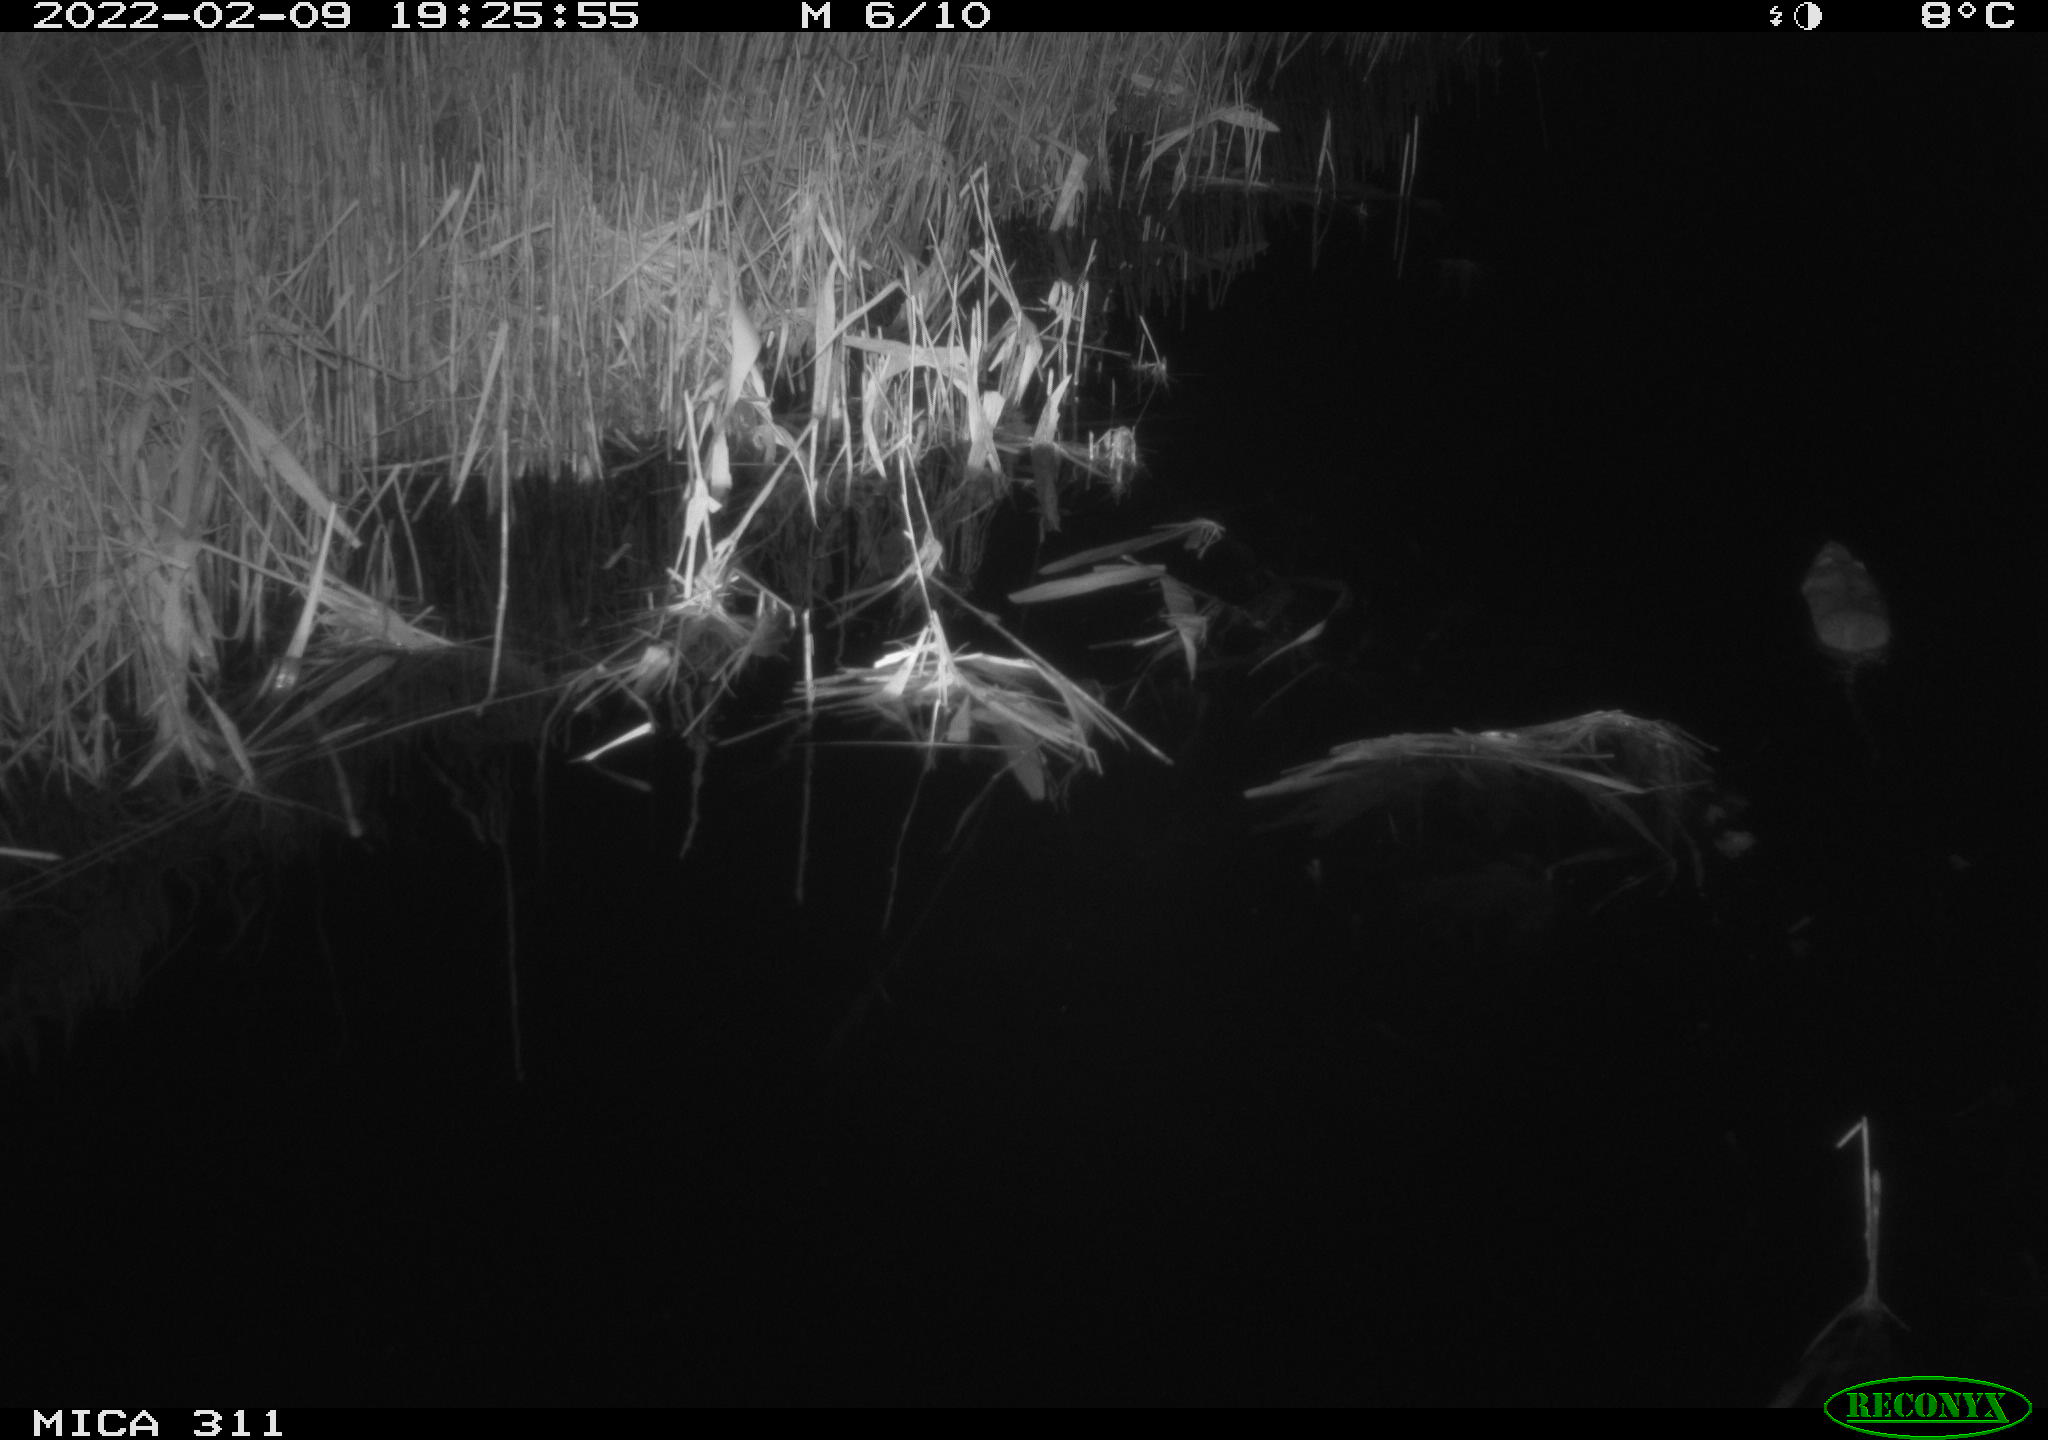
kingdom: Animalia
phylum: Chordata
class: Mammalia
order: Rodentia
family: Muridae
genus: Rattus
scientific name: Rattus norvegicus
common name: Brown rat
